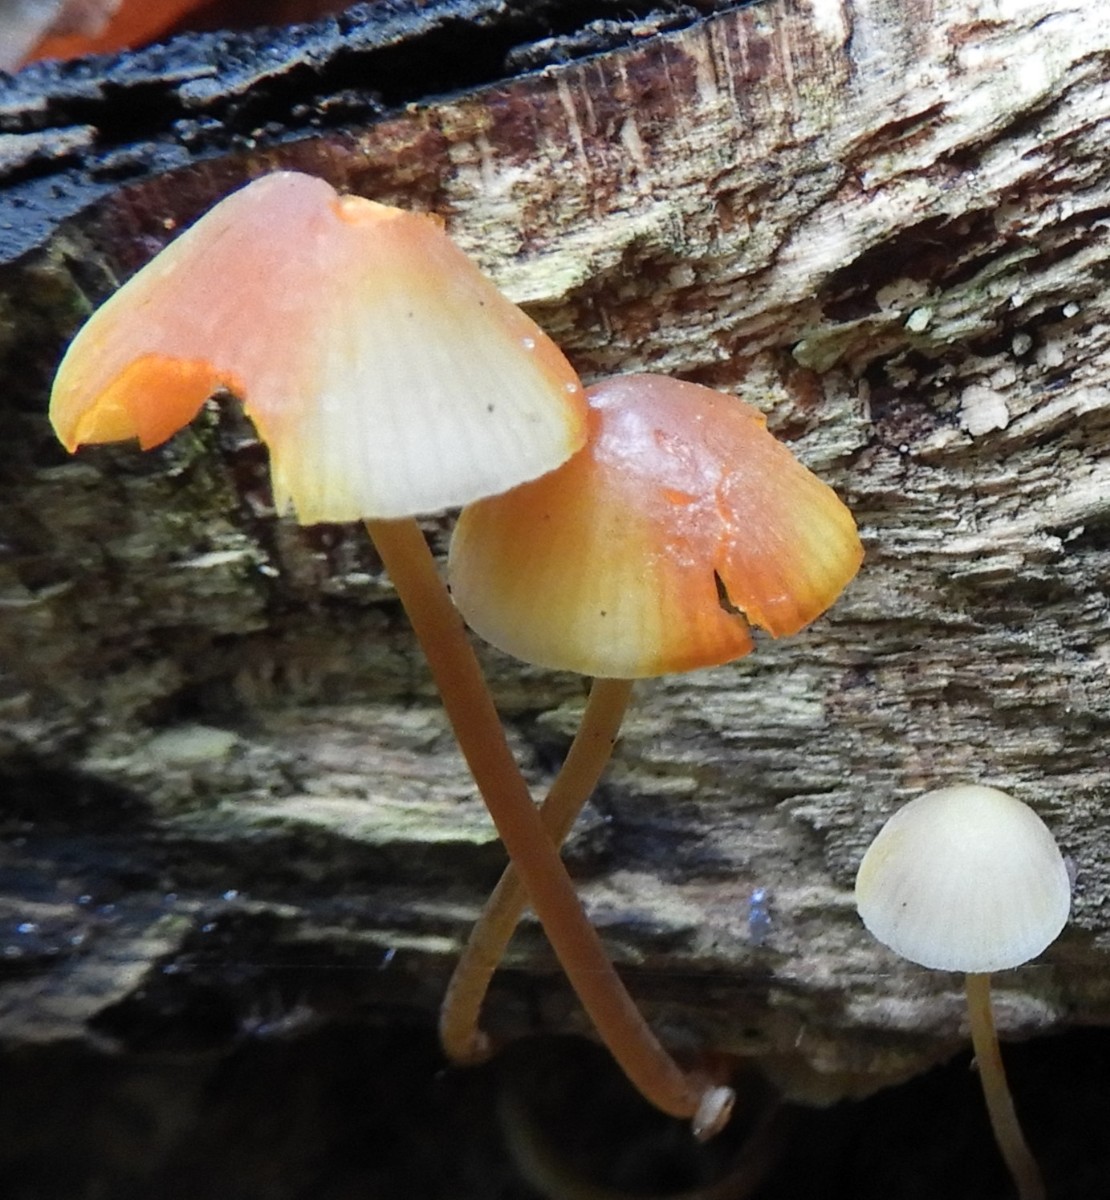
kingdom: Fungi
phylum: Basidiomycota
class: Agaricomycetes
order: Agaricales
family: Mycenaceae
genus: Mycena
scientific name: Mycena crocata
